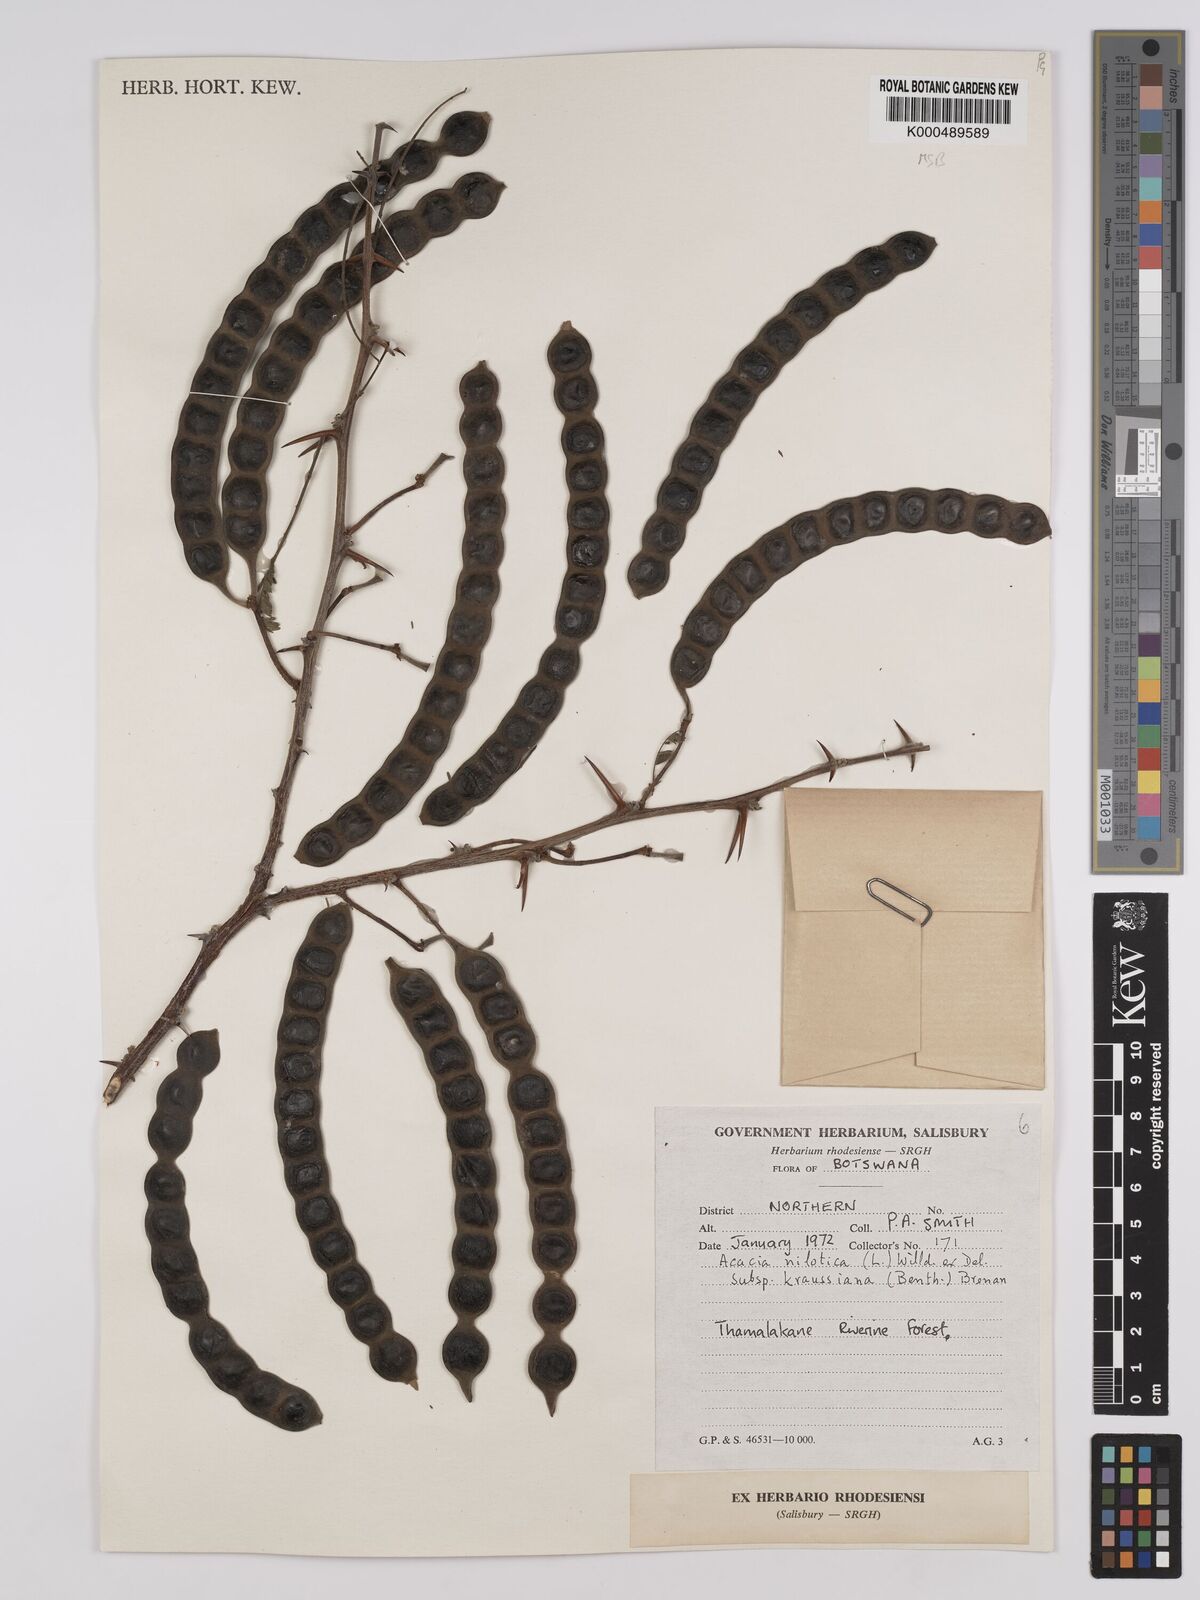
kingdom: Plantae
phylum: Tracheophyta
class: Magnoliopsida
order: Fabales
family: Fabaceae
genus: Vachellia
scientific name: Vachellia nilotica
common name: Arabic gumtree
